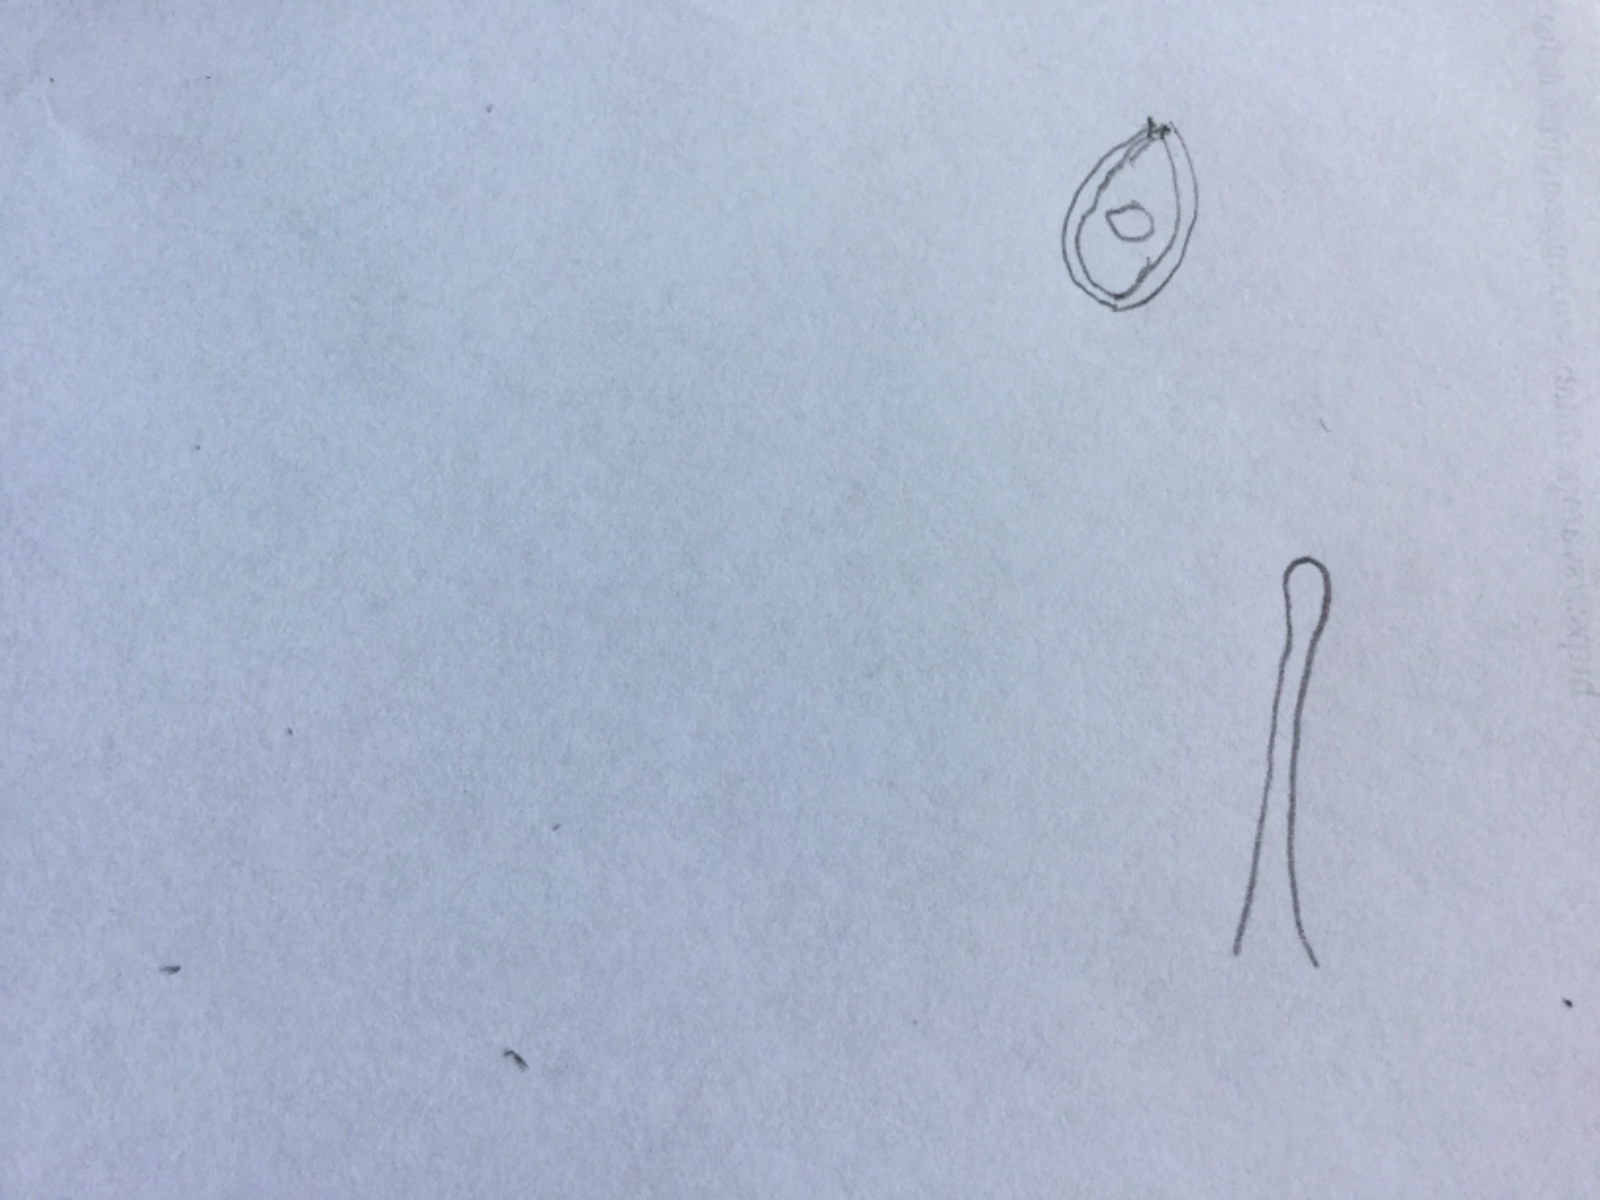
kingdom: Fungi
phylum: Basidiomycota
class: Agaricomycetes
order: Agaricales
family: Strophariaceae
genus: Deconica
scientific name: Deconica montana
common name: rødbrun stråhat
